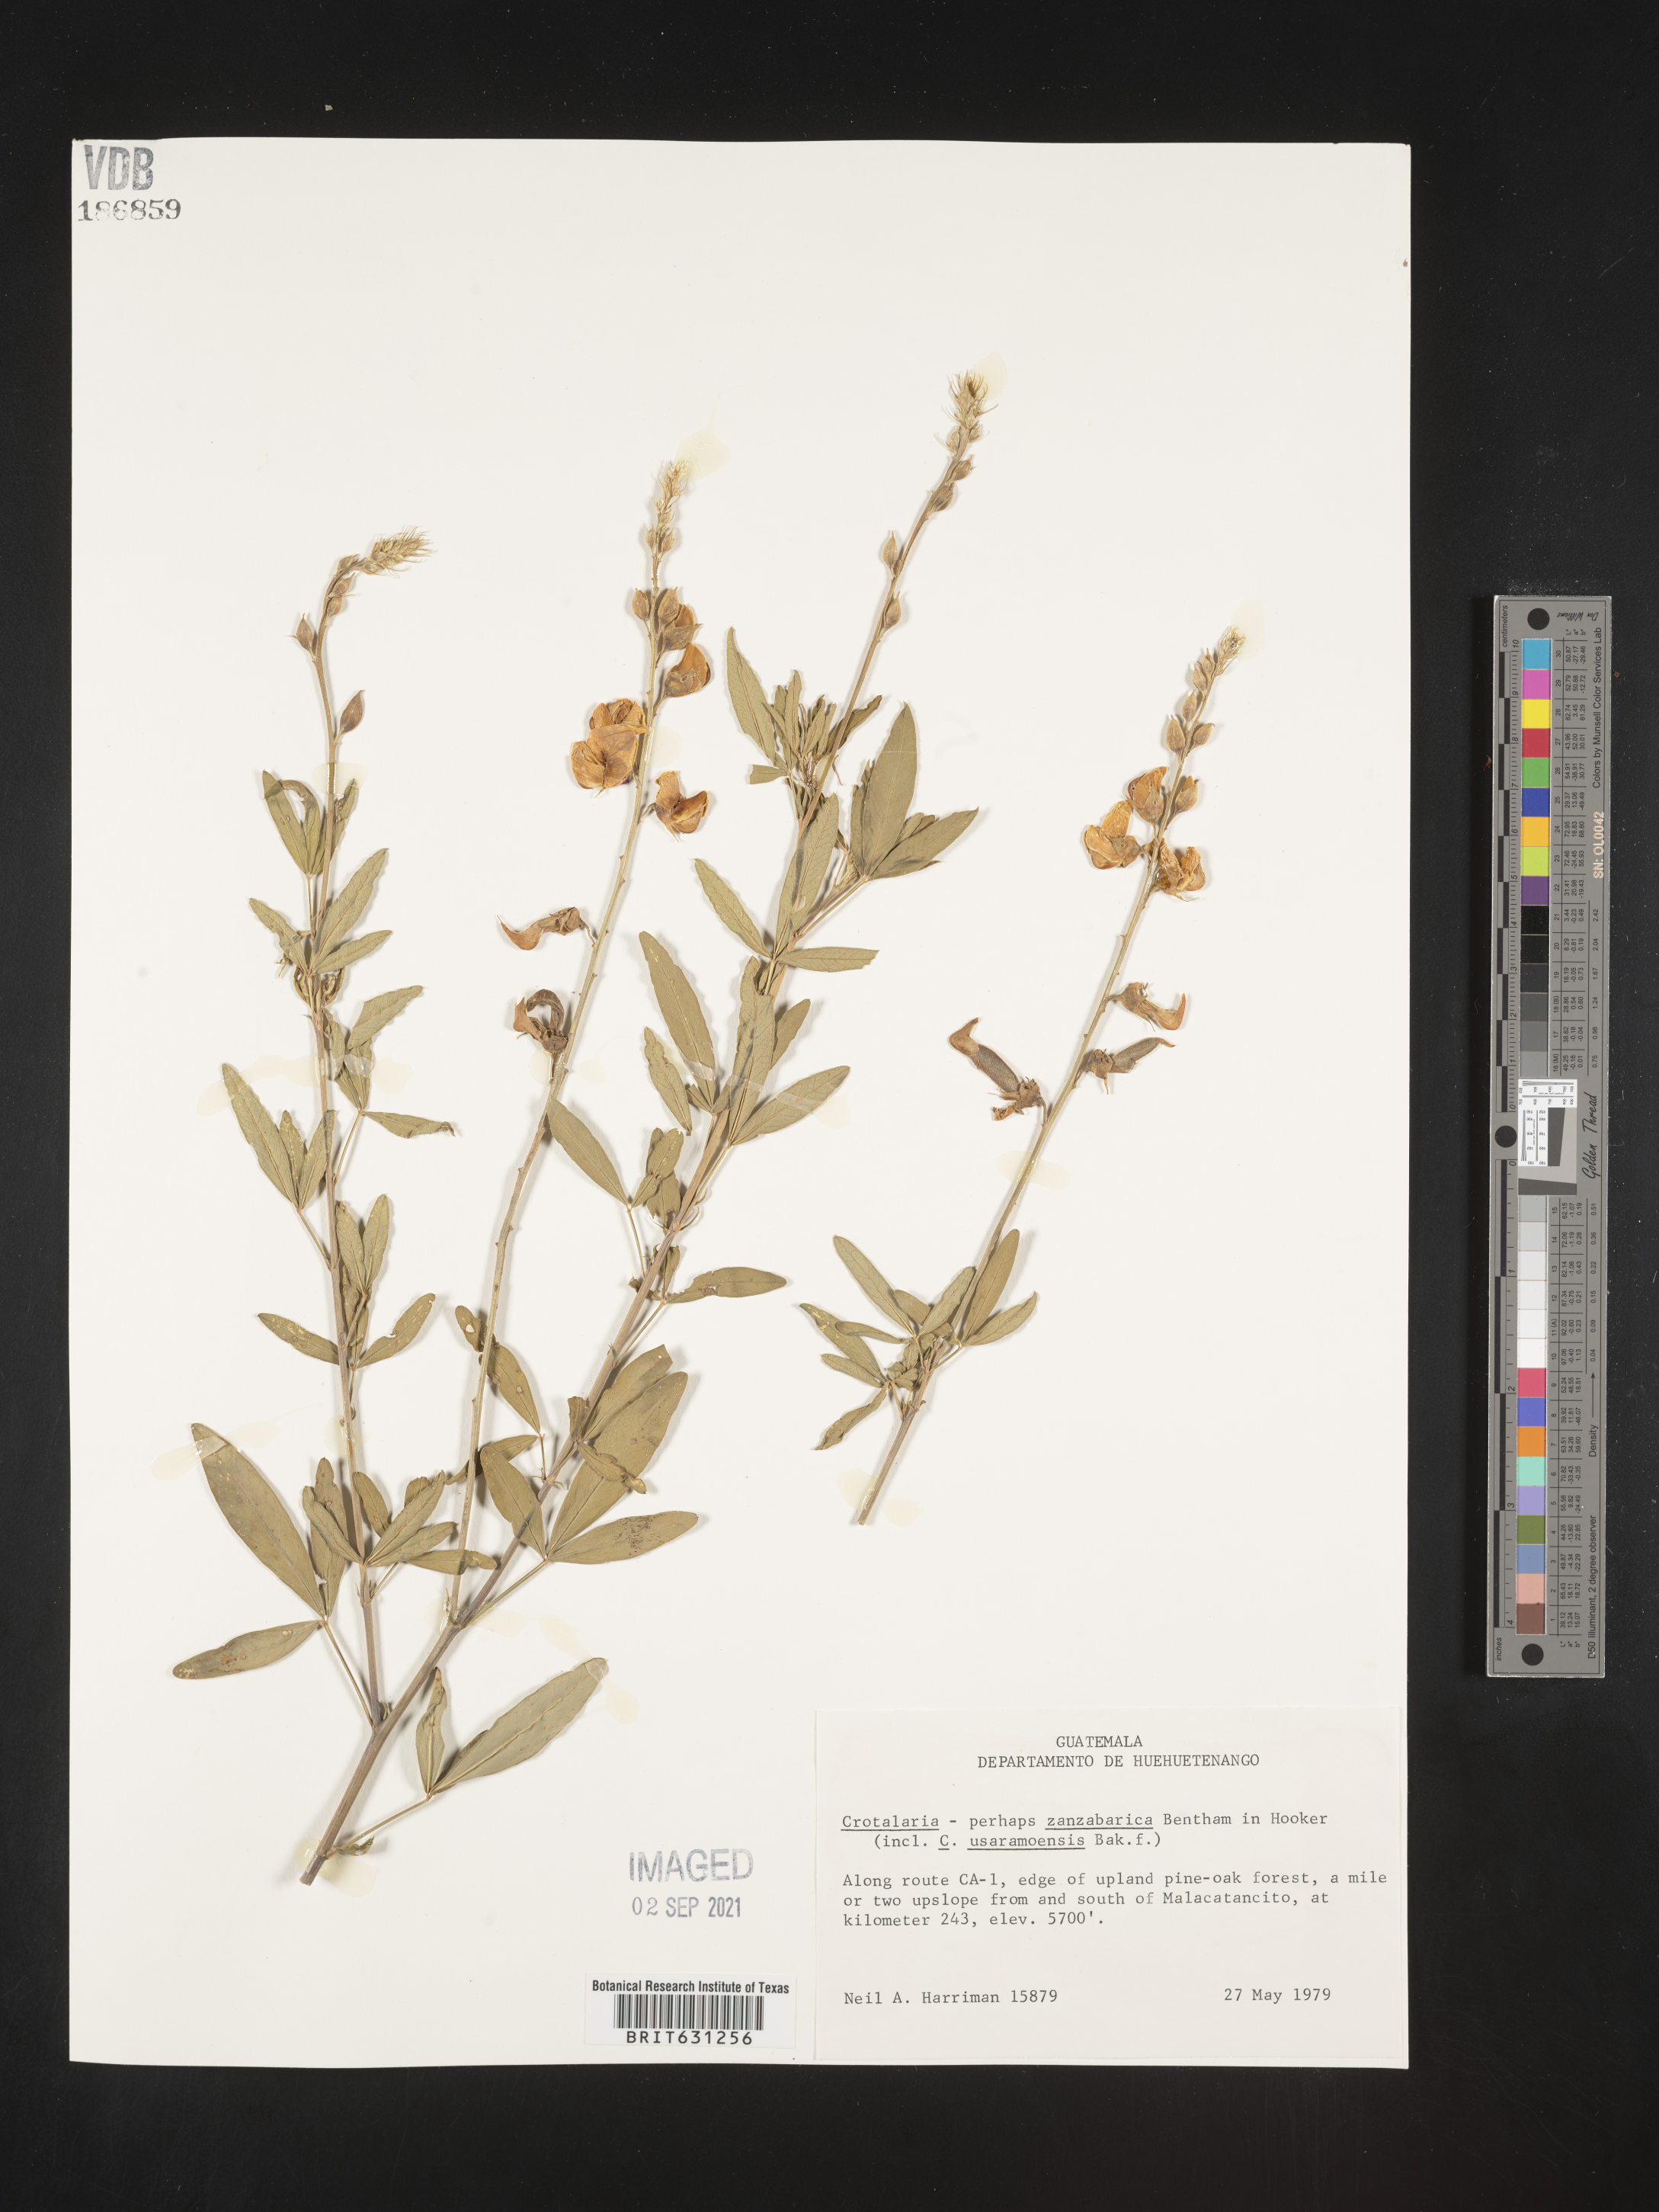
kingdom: Plantae
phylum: Tracheophyta
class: Magnoliopsida
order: Fabales
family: Fabaceae
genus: Crotalaria
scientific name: Crotalaria trichotoma
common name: West indian rattlebox
